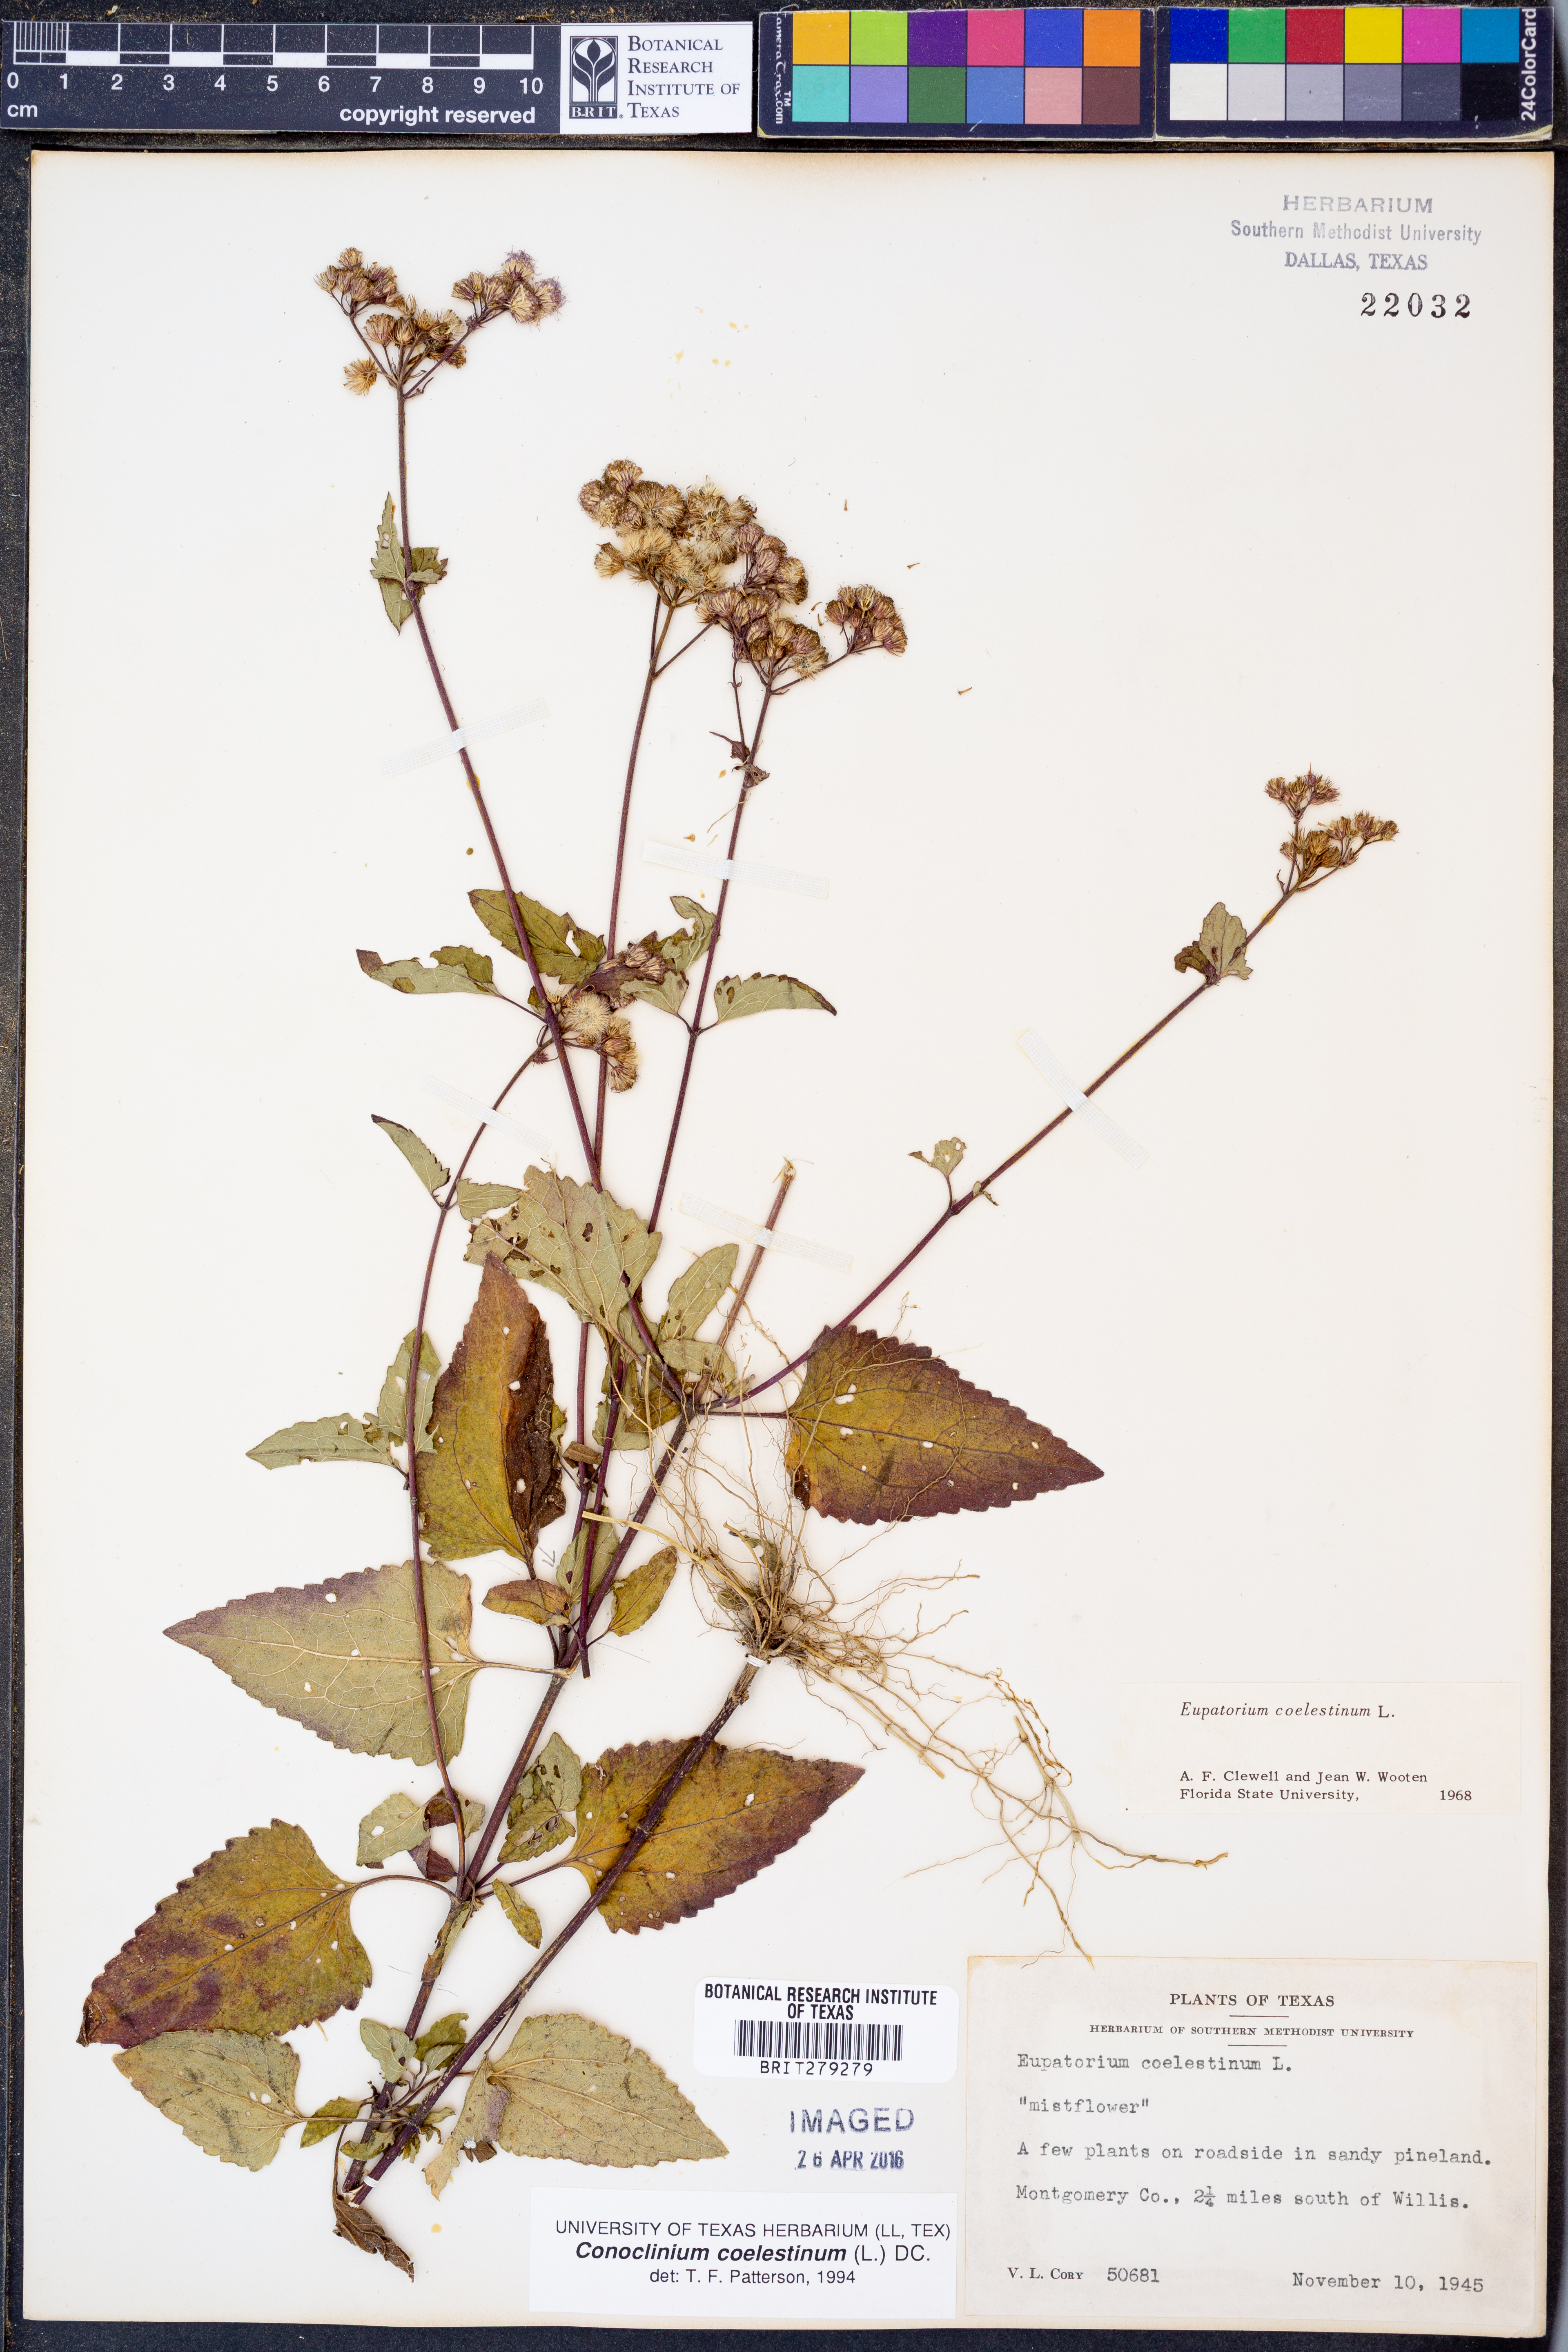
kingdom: Plantae
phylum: Tracheophyta
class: Magnoliopsida
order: Asterales
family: Asteraceae
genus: Conoclinium
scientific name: Conoclinium coelestinum
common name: Blue mistflower
